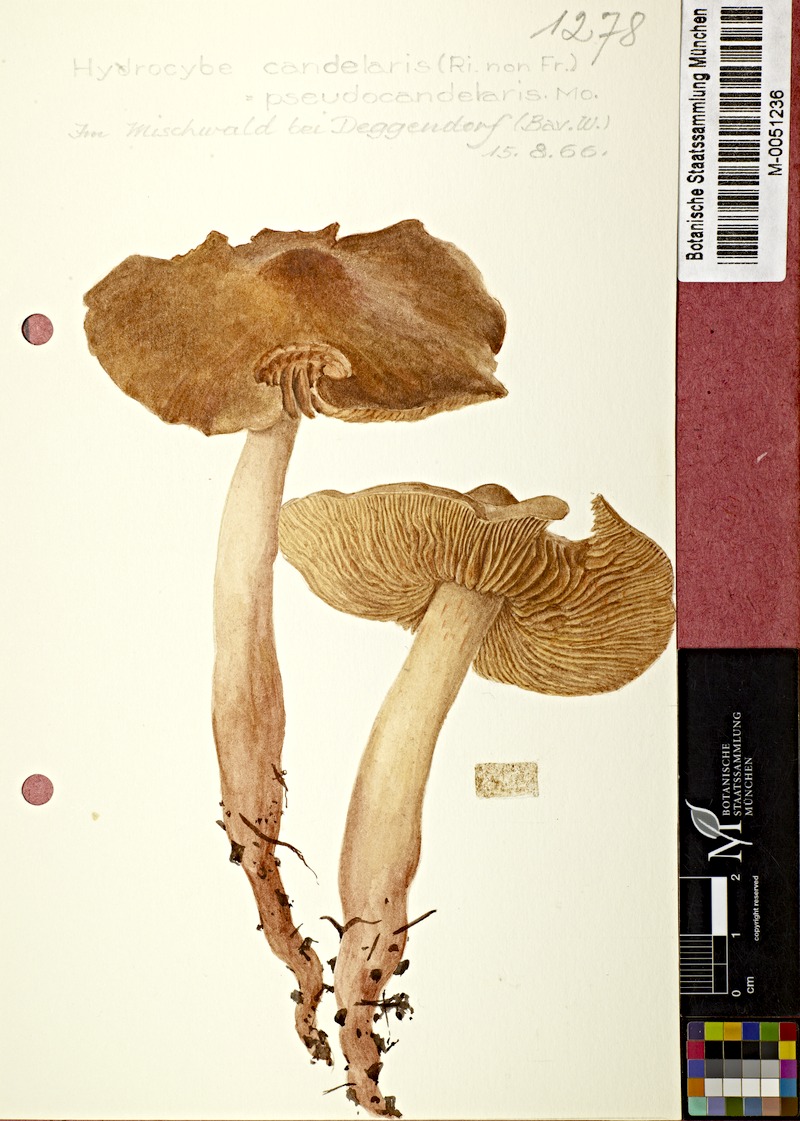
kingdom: Fungi
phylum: Basidiomycota
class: Agaricomycetes
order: Agaricales
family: Cortinariaceae
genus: Cortinarius
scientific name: Cortinarius pseudocandelaris
